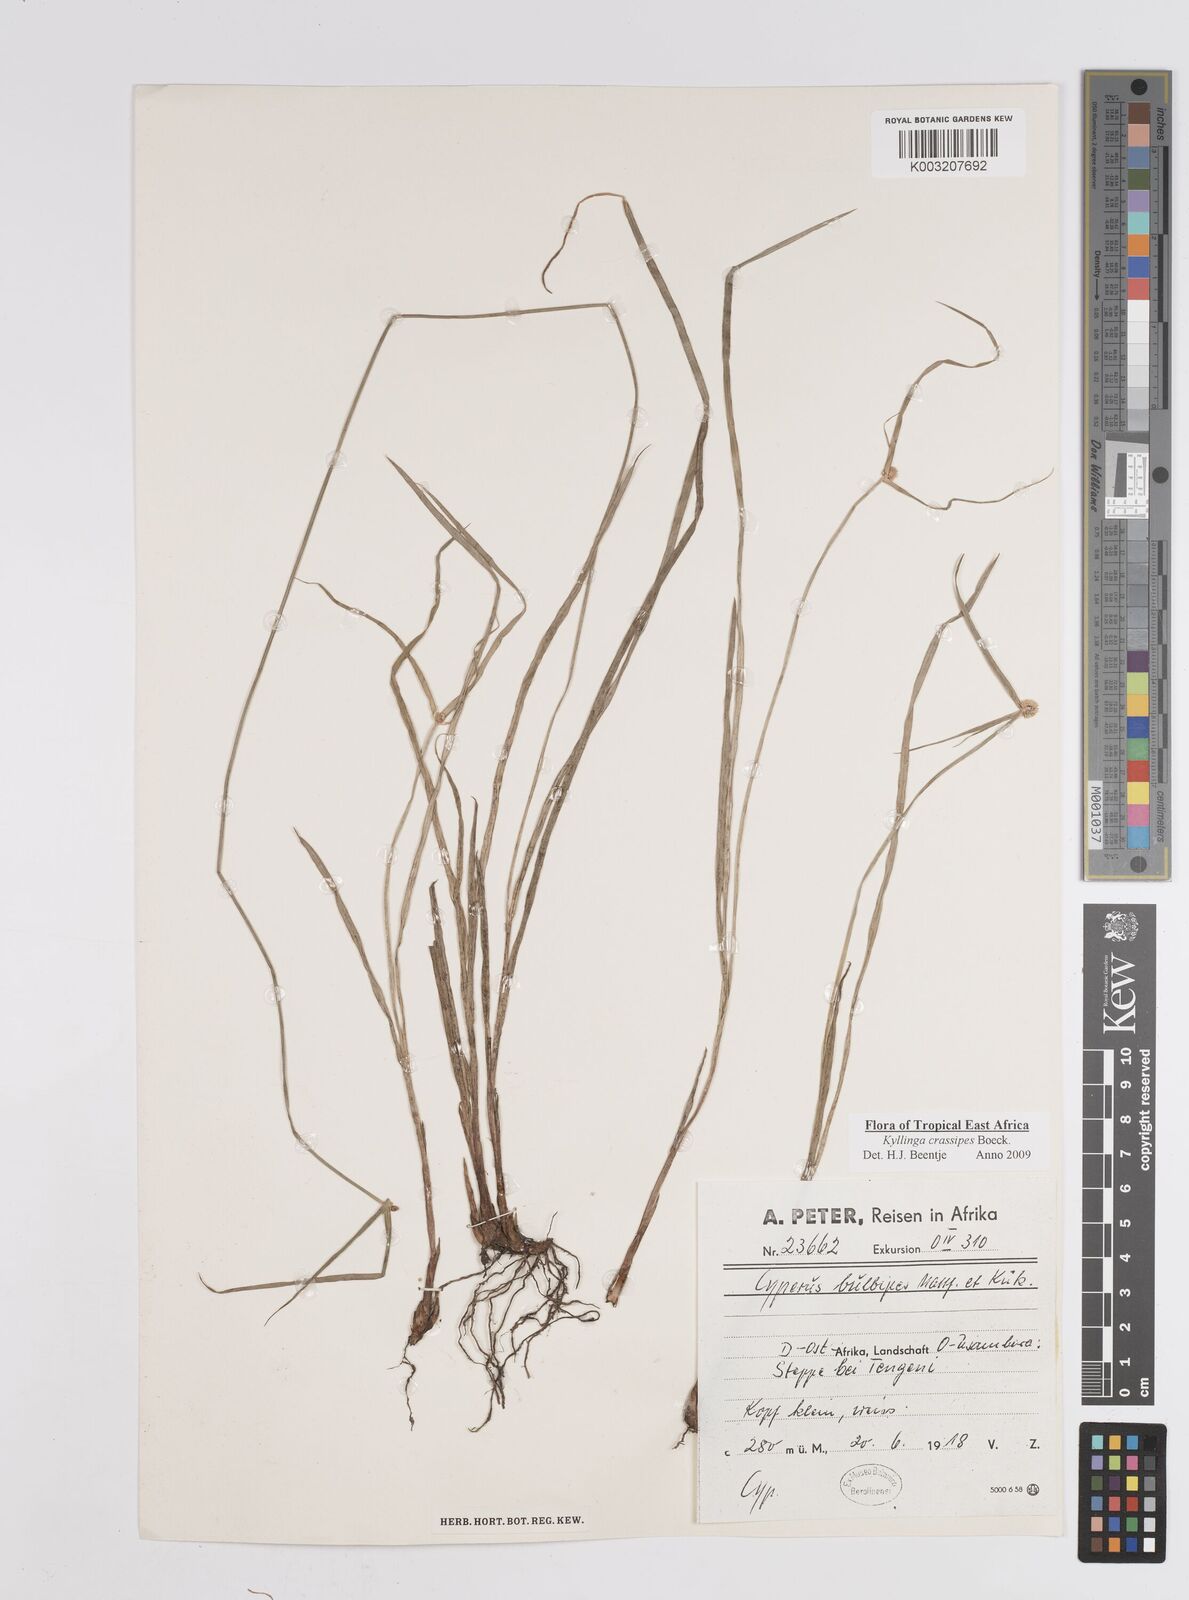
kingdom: Plantae
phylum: Tracheophyta
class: Liliopsida
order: Poales
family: Cyperaceae
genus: Cyperus
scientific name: Cyperus crassipes
